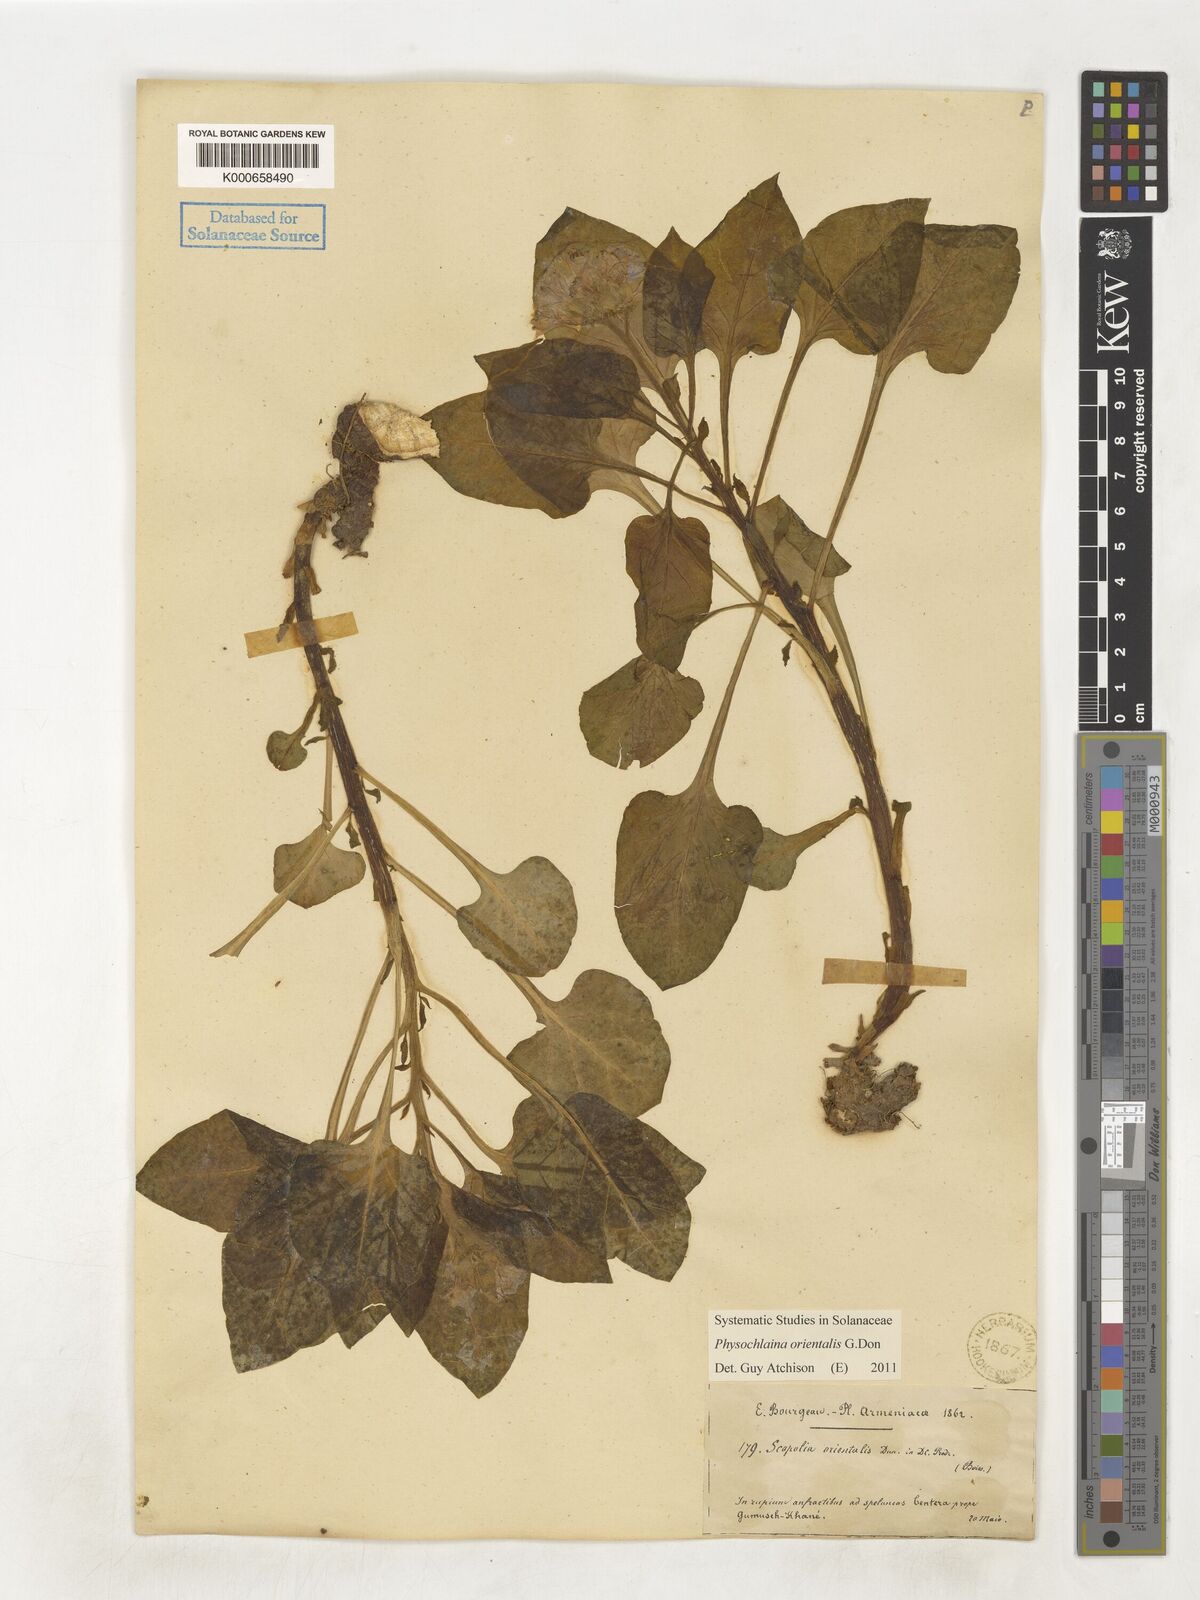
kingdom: Plantae
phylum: Tracheophyta
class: Magnoliopsida
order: Solanales
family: Solanaceae
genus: Physochlaina
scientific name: Physochlaina orientalis
